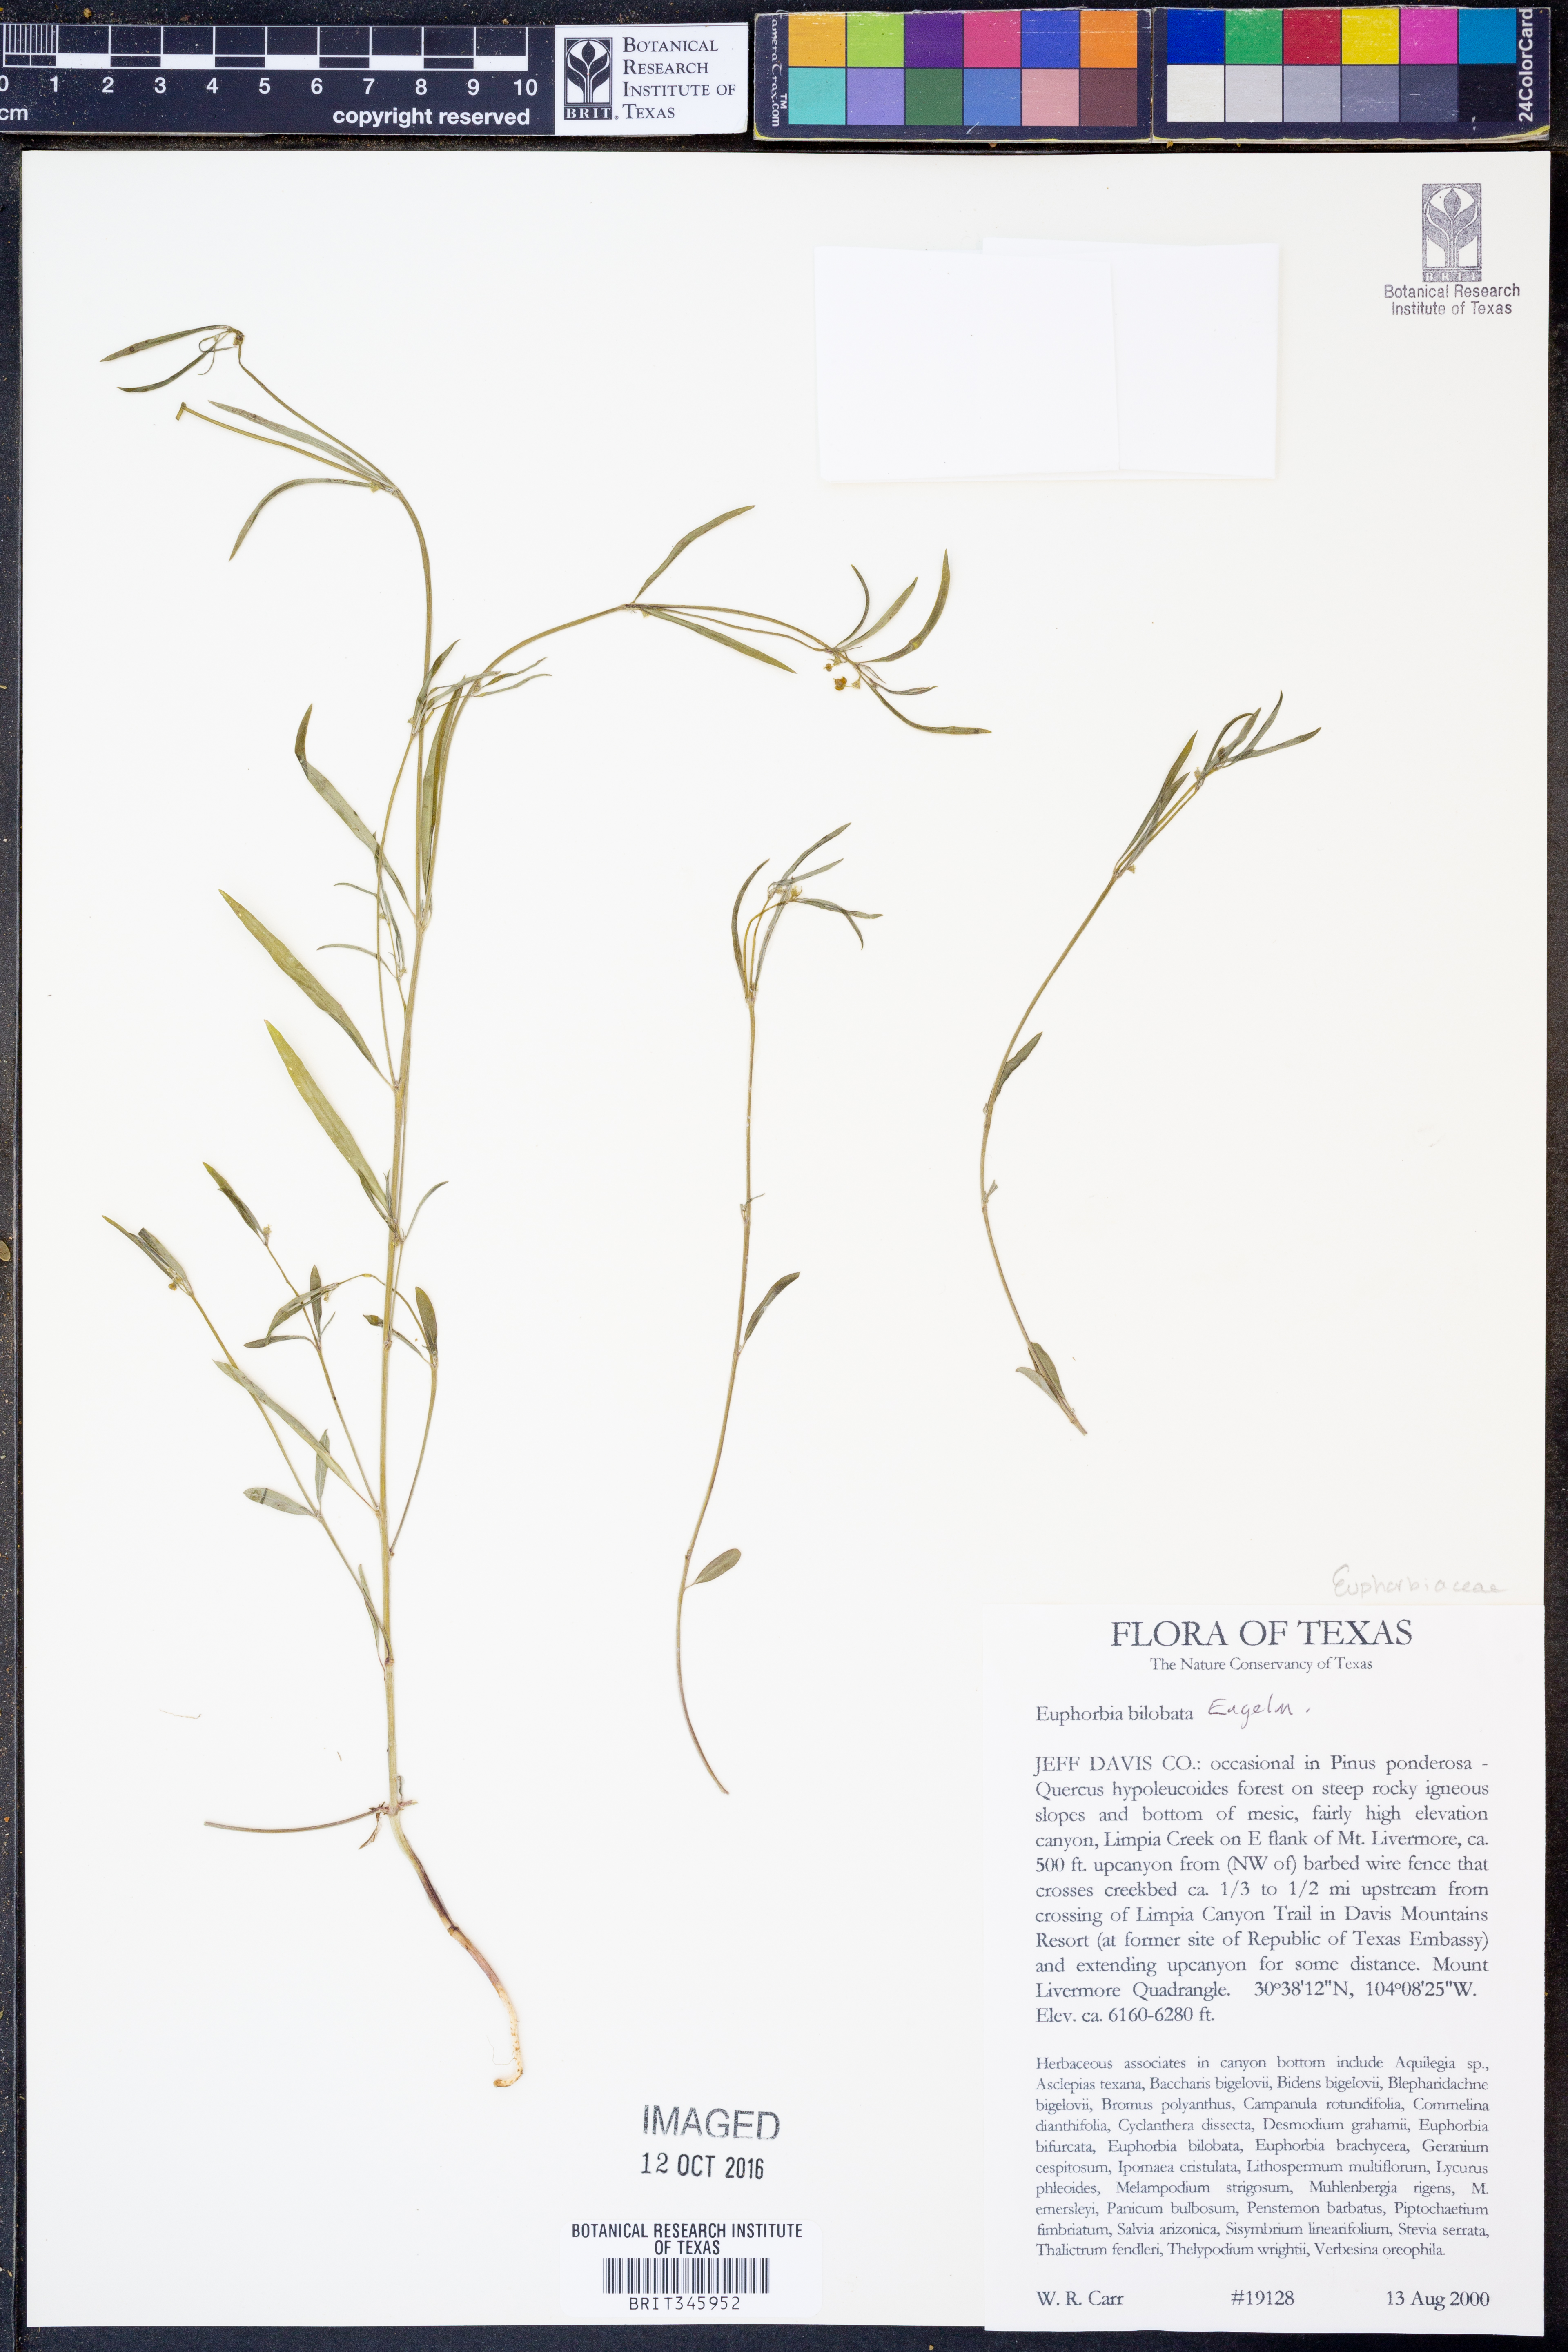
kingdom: Plantae
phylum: Tracheophyta
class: Magnoliopsida
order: Malpighiales
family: Euphorbiaceae
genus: Euphorbia
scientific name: Euphorbia bilobata
